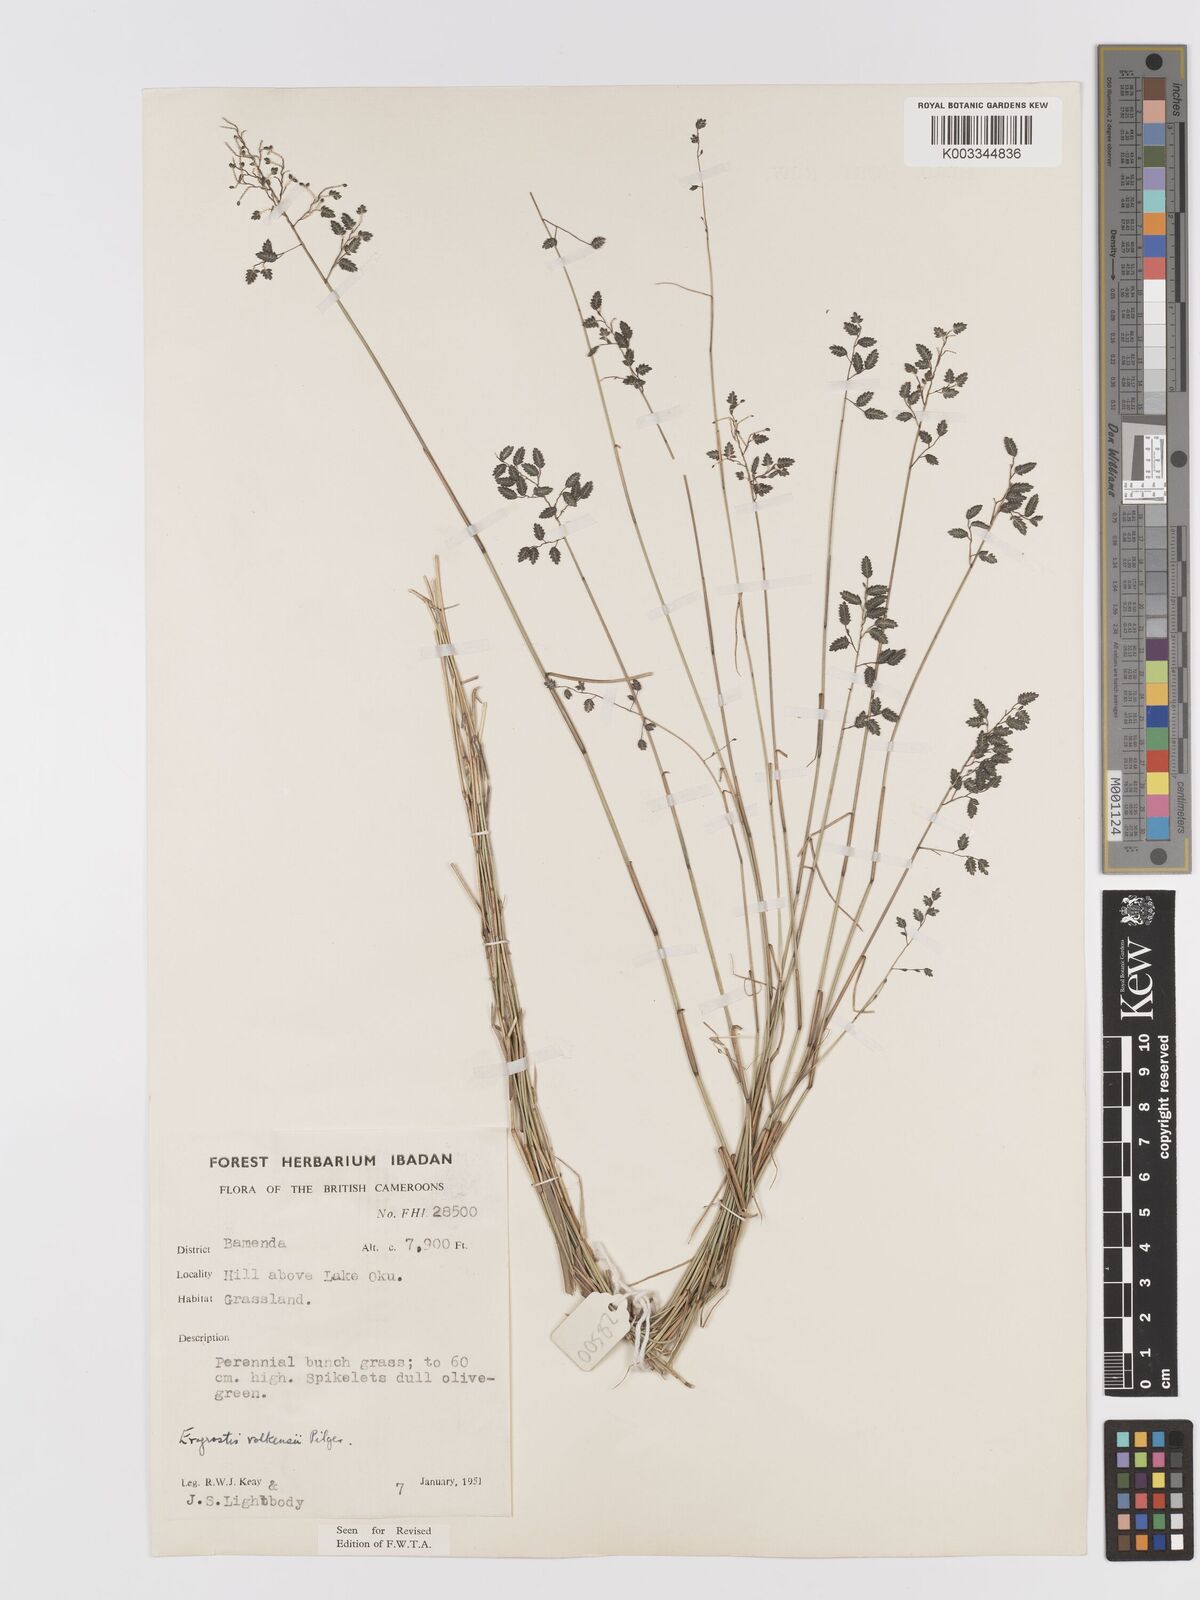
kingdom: Plantae
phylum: Tracheophyta
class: Liliopsida
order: Poales
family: Poaceae
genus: Eragrostis
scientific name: Eragrostis volkensii
